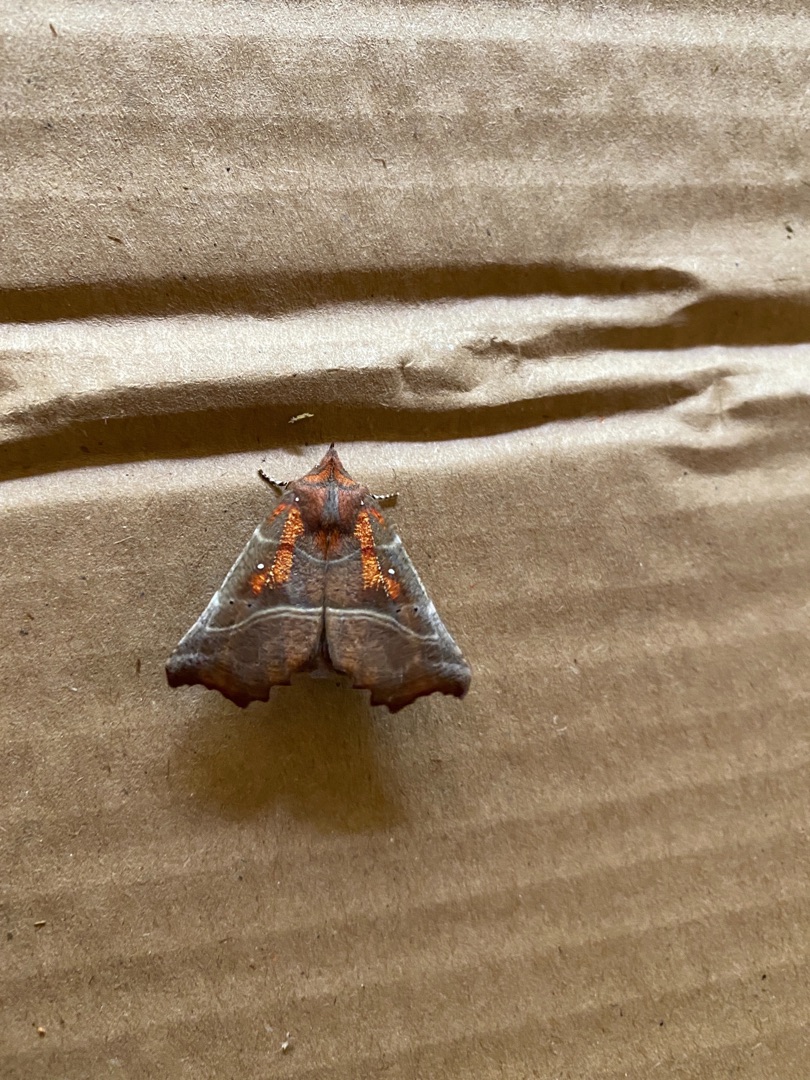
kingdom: Animalia
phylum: Arthropoda
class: Insecta
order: Lepidoptera
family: Erebidae
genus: Scoliopteryx
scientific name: Scoliopteryx libatrix
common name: Husmoderugle
